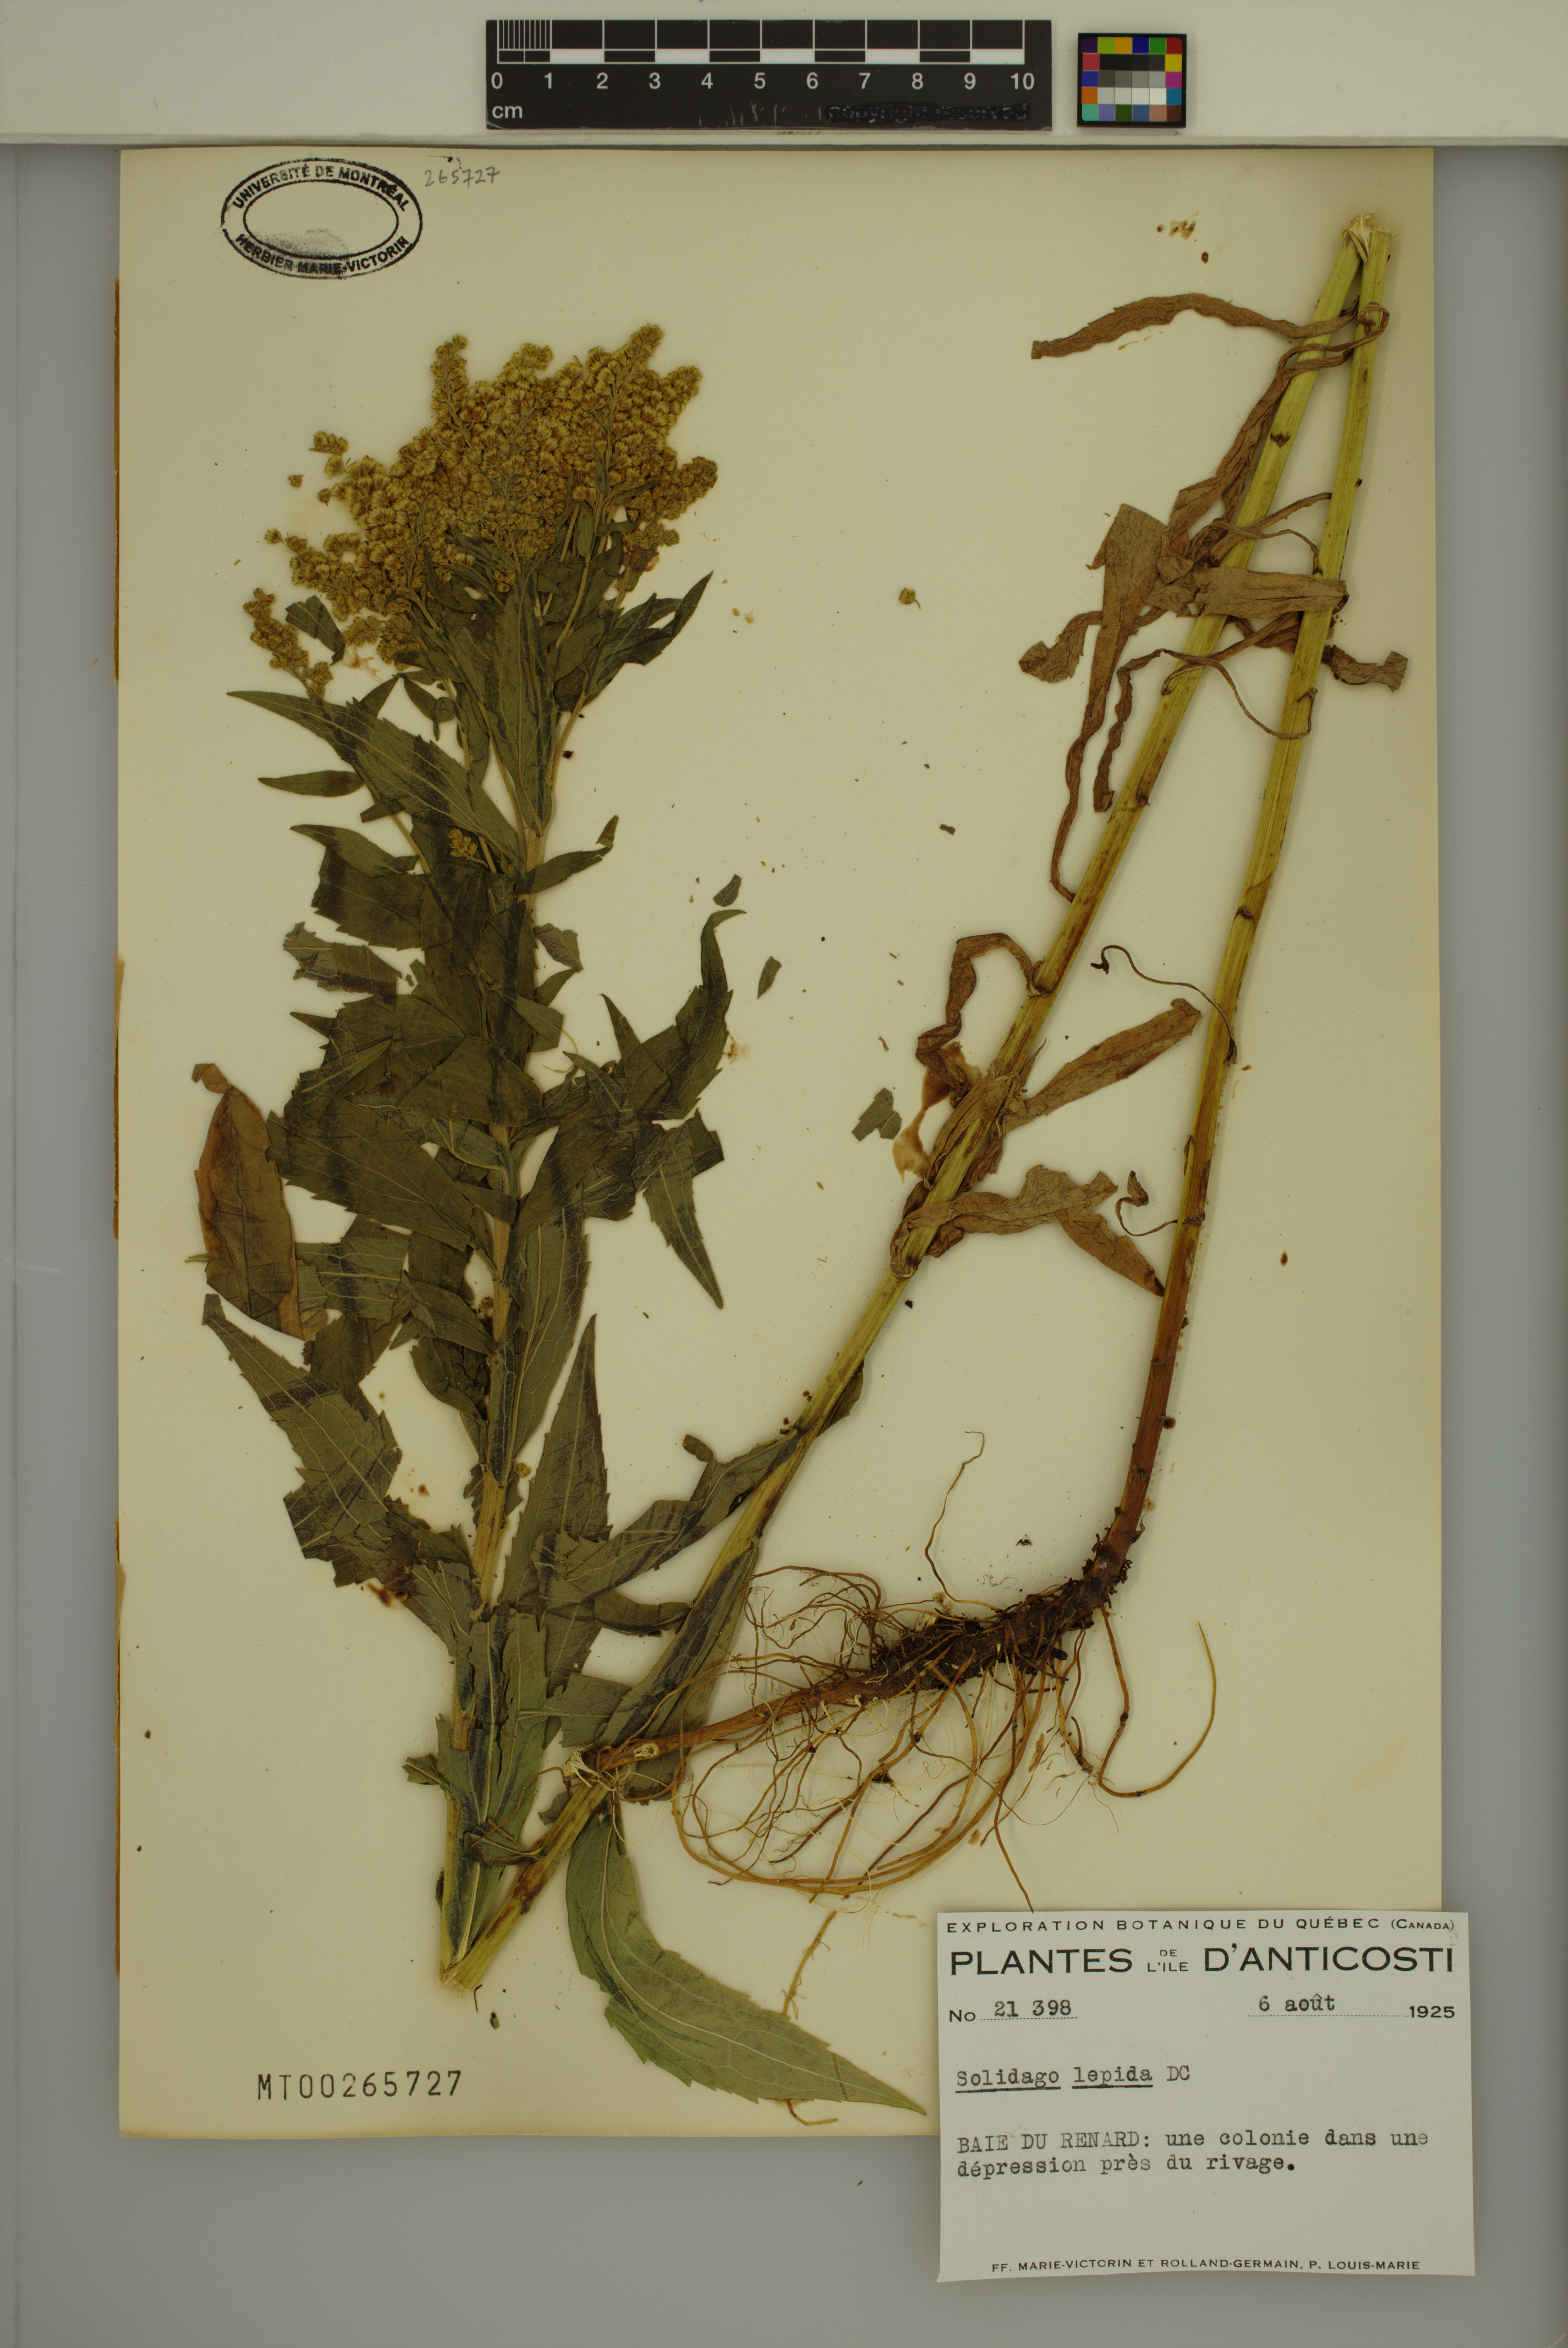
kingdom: Plantae
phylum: Tracheophyta
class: Magnoliopsida
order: Asterales
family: Asteraceae
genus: Solidago
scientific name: Solidago fallax
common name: Big-toothed canada goldenrod
